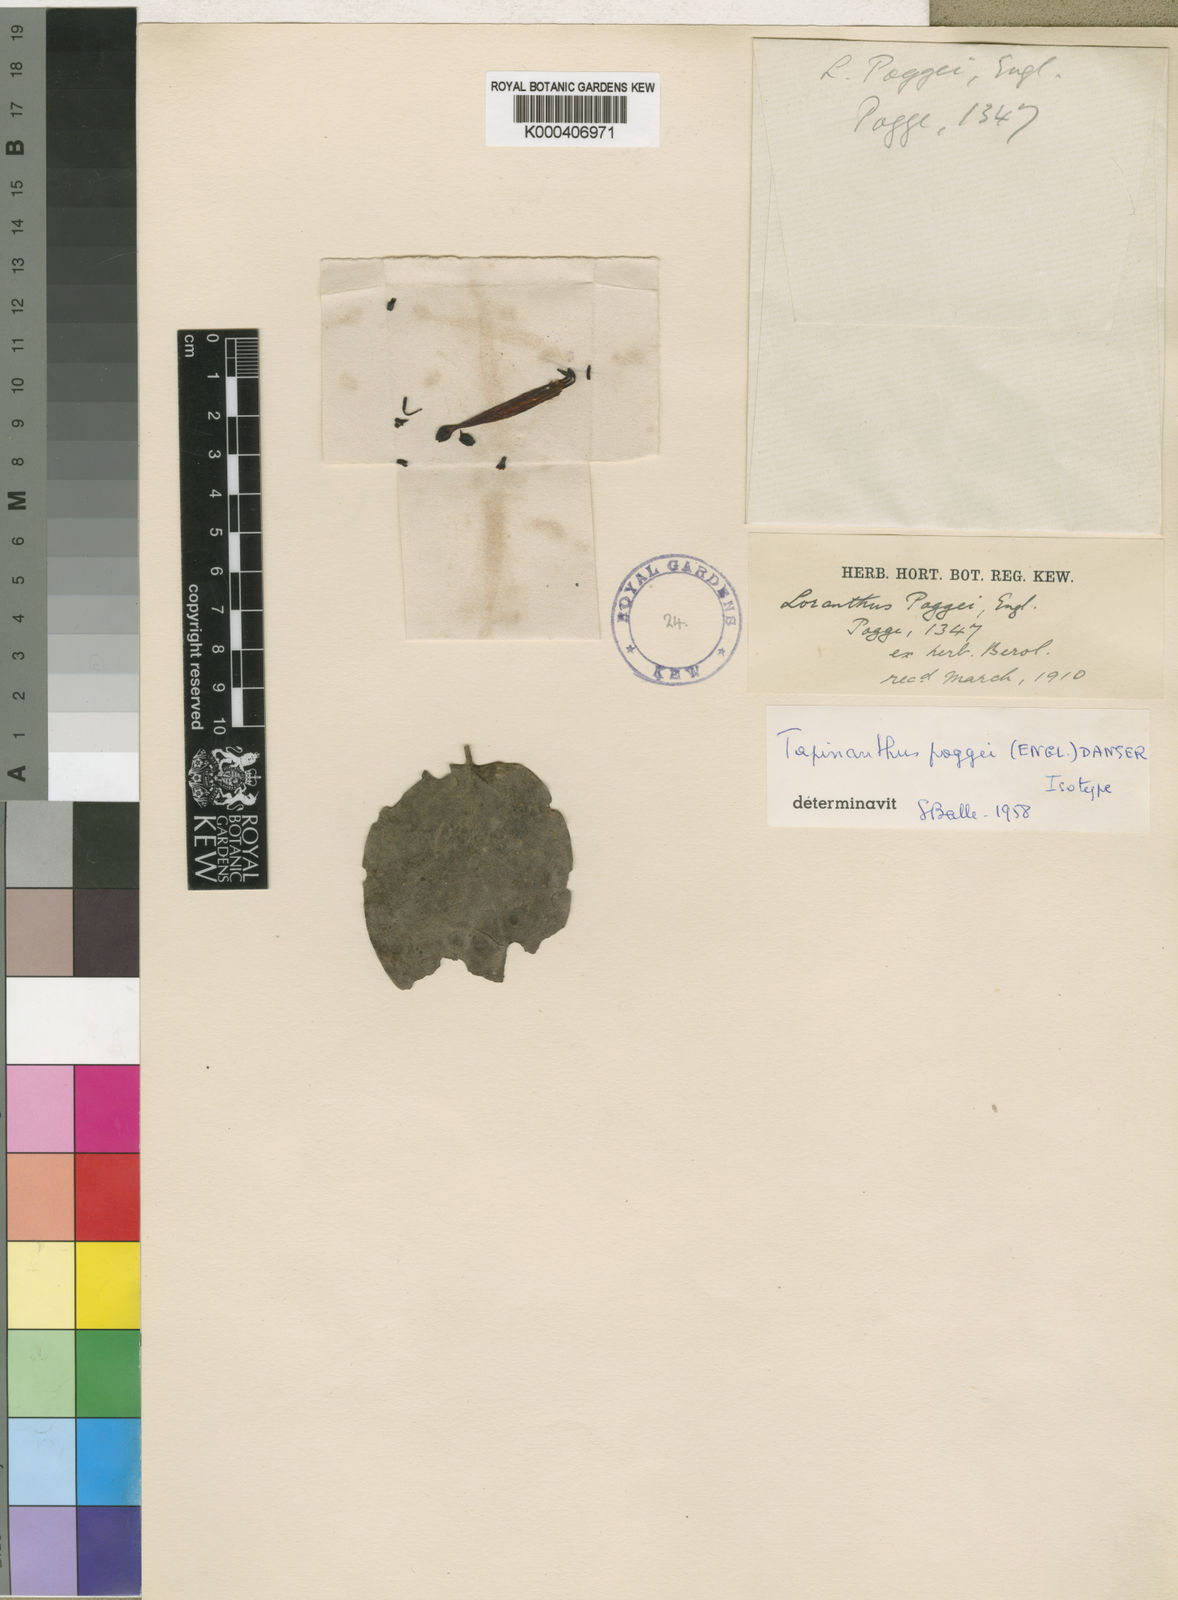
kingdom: Plantae
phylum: Tracheophyta
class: Magnoliopsida
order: Santalales
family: Loranthaceae
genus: Tapinanthus
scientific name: Tapinanthus constrictiflorus
